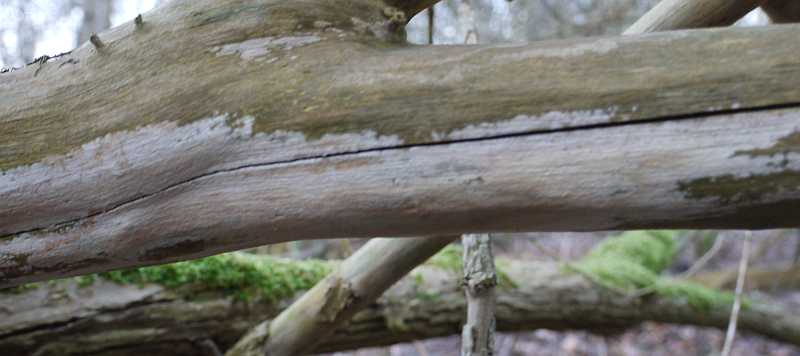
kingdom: Fungi
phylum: Basidiomycota
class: Agaricomycetes
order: Corticiales
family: Corticiaceae
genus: Lyomyces
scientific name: Lyomyces sambuci
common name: almindelig hyldehinde
